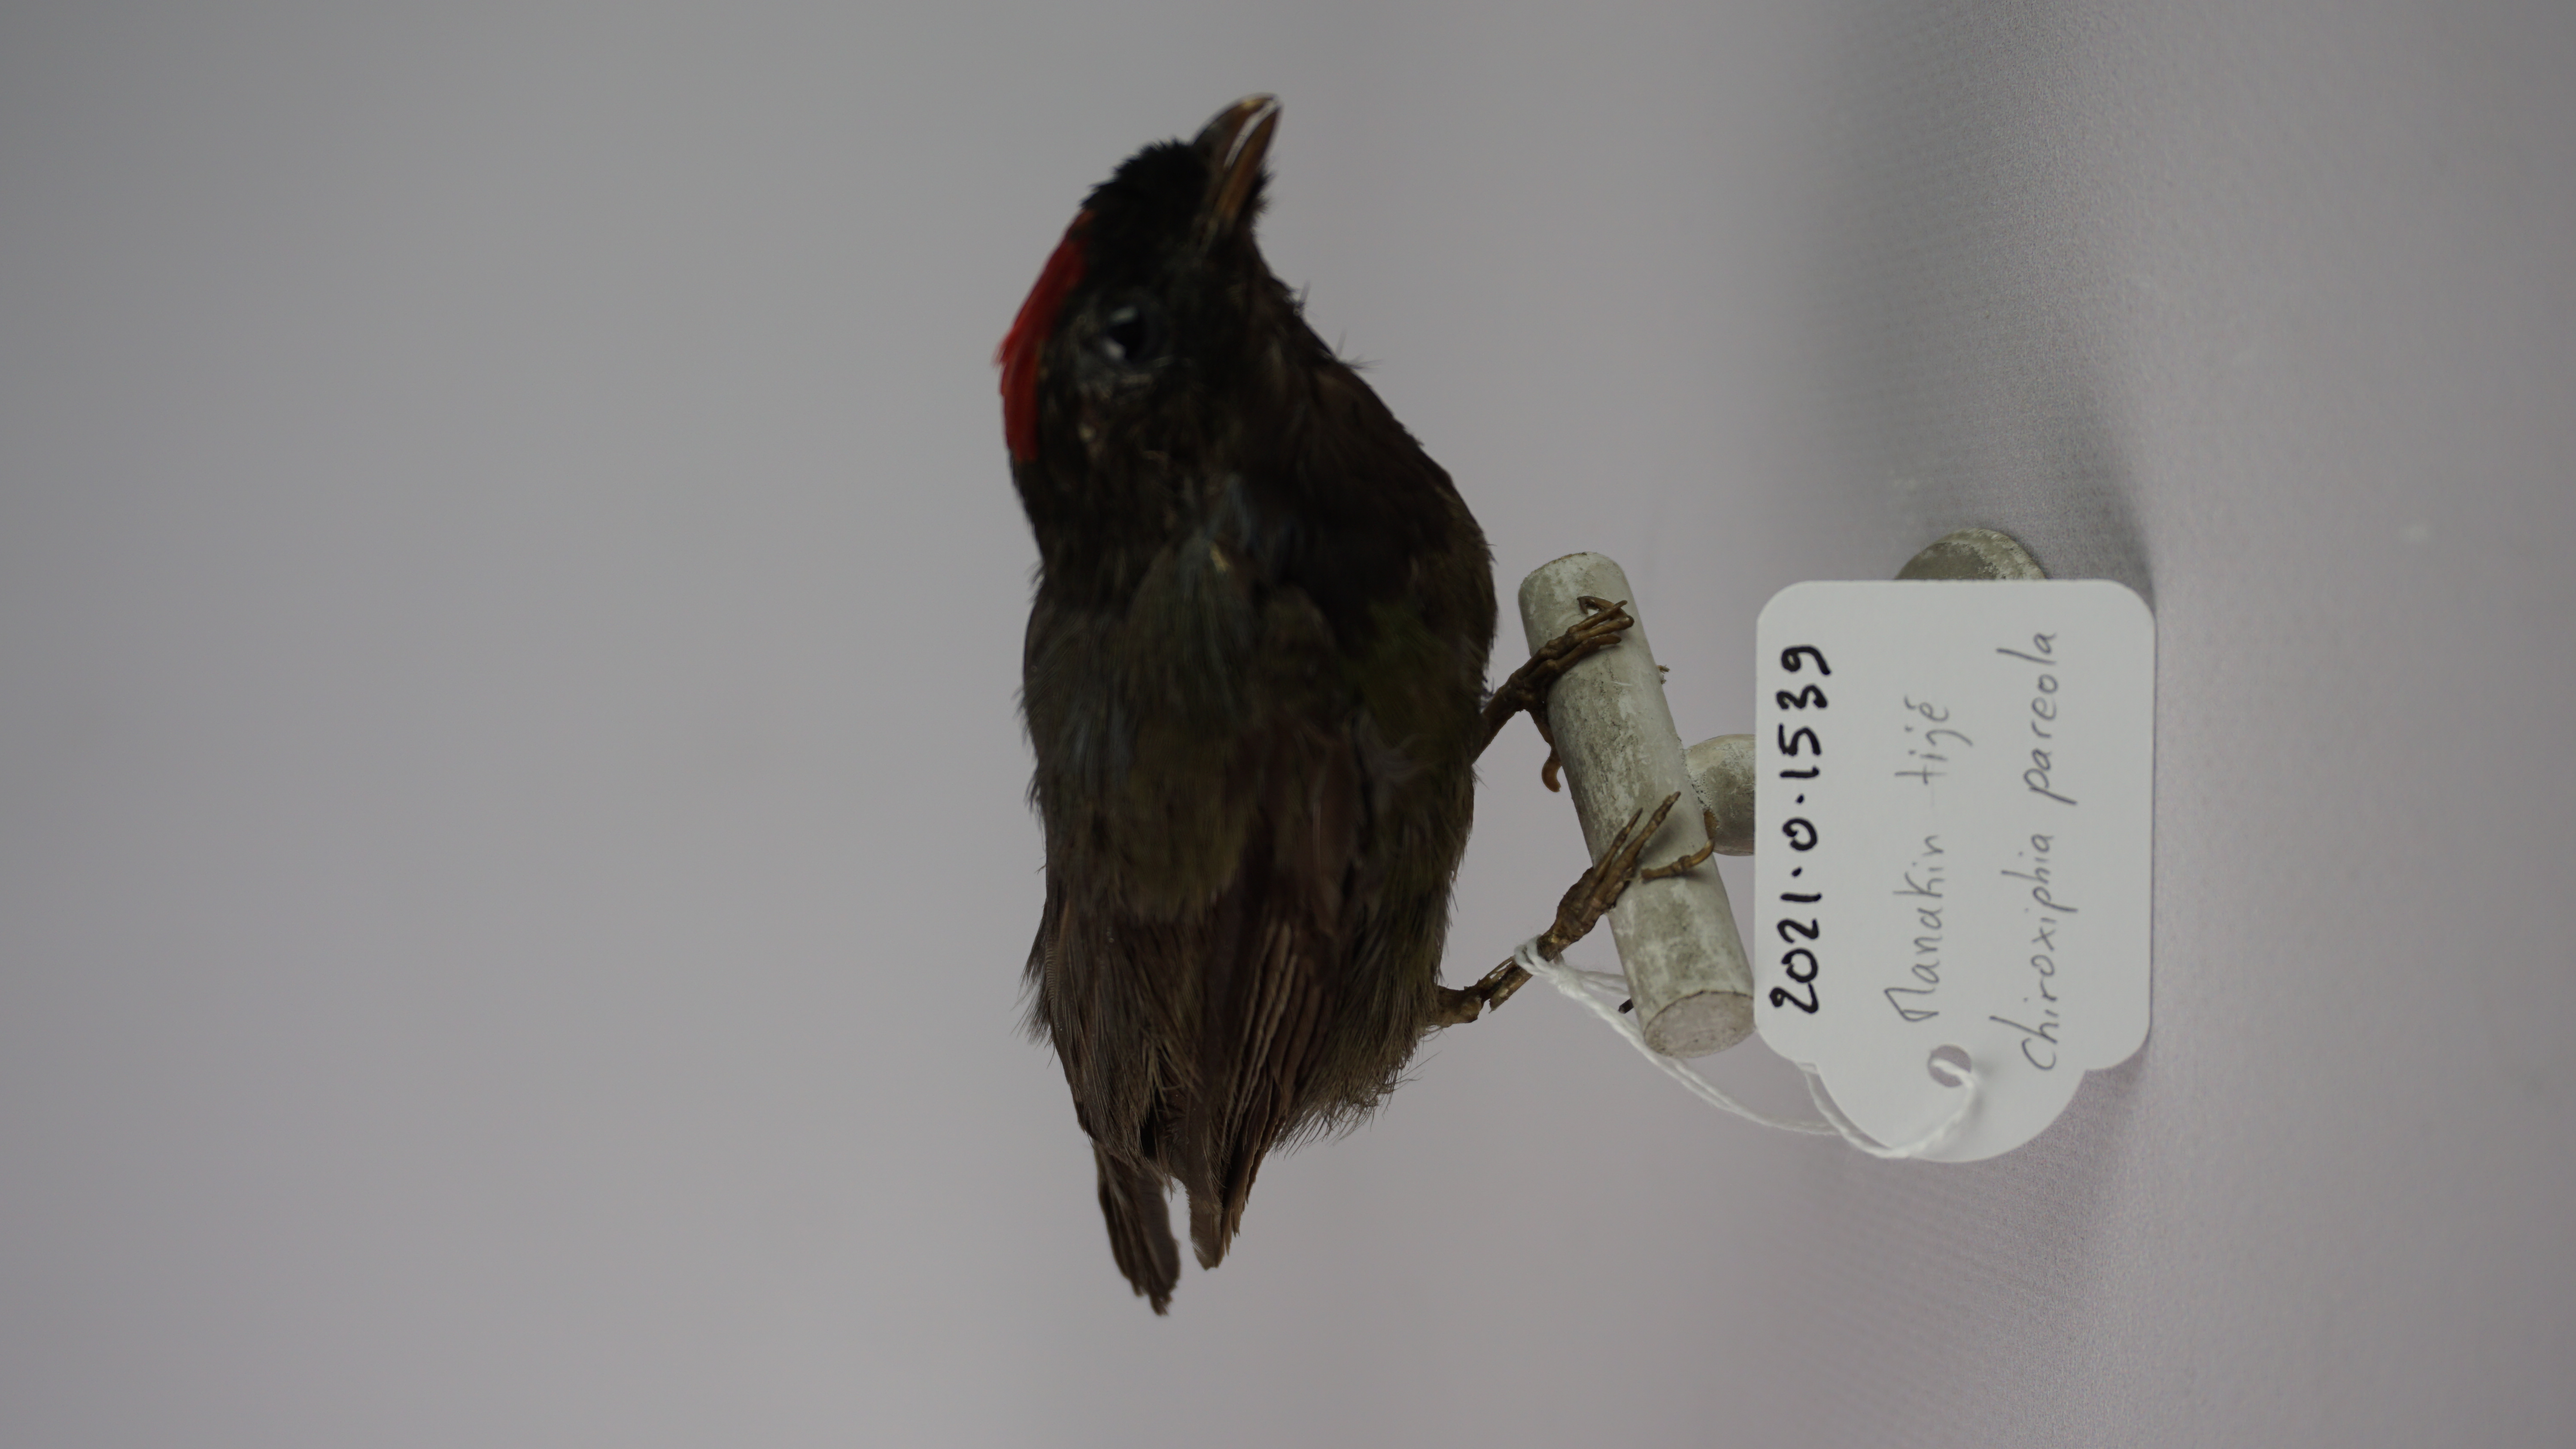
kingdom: Animalia
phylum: Chordata
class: Aves
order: Passeriformes
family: Pipridae
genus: Chiroxiphia
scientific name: Chiroxiphia pareola
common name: Blue-backed manakin
